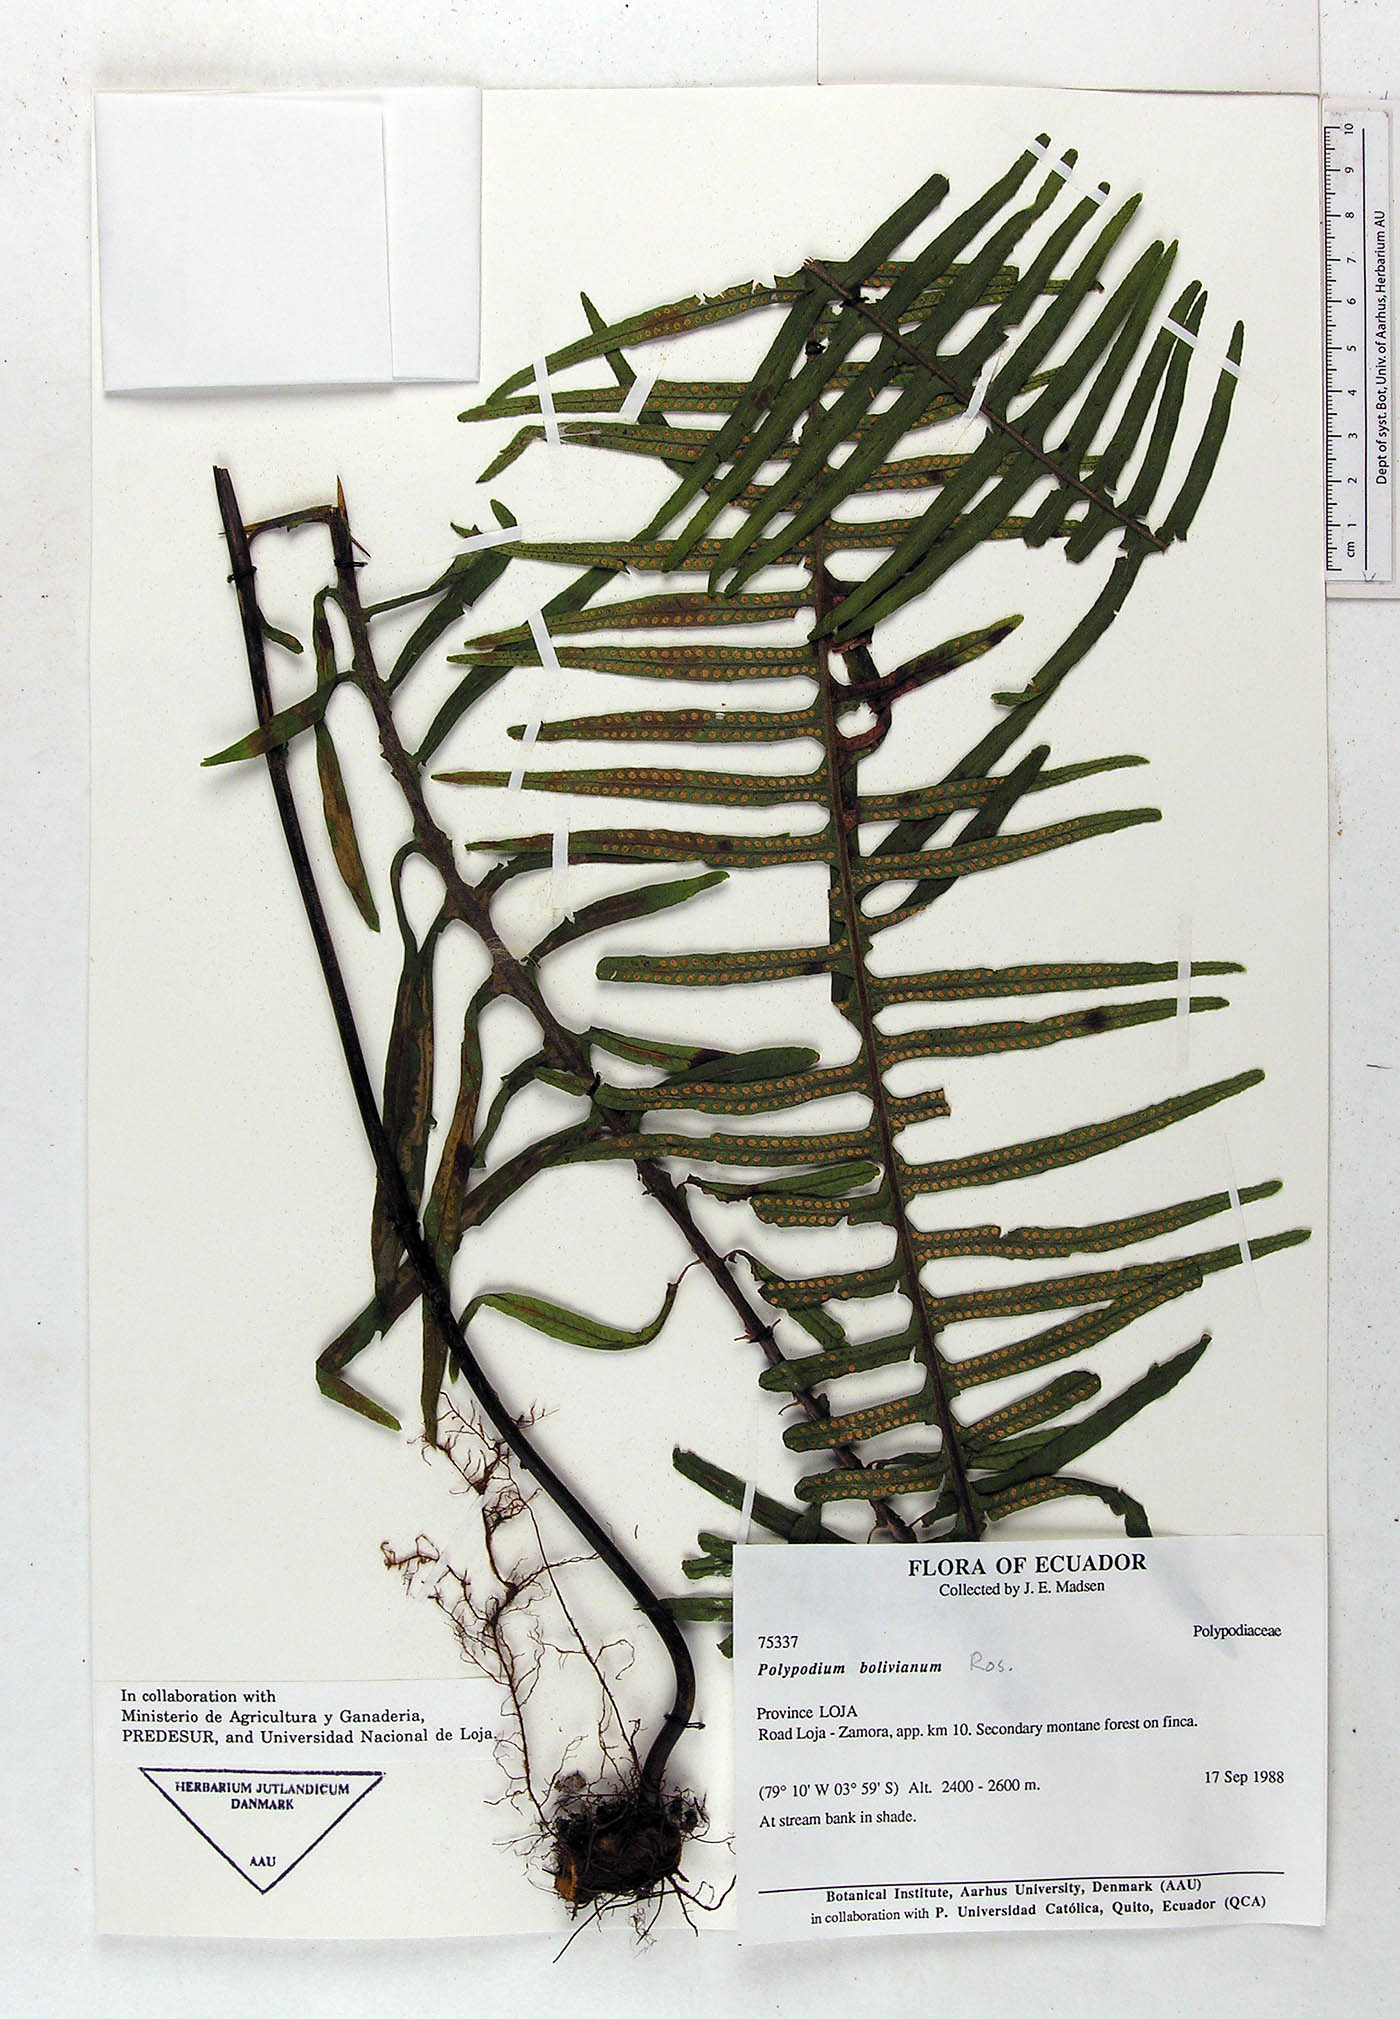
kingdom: Plantae
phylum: Tracheophyta
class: Polypodiopsida
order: Polypodiales
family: Polypodiaceae
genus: Pecluma
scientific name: Pecluma divaricata
